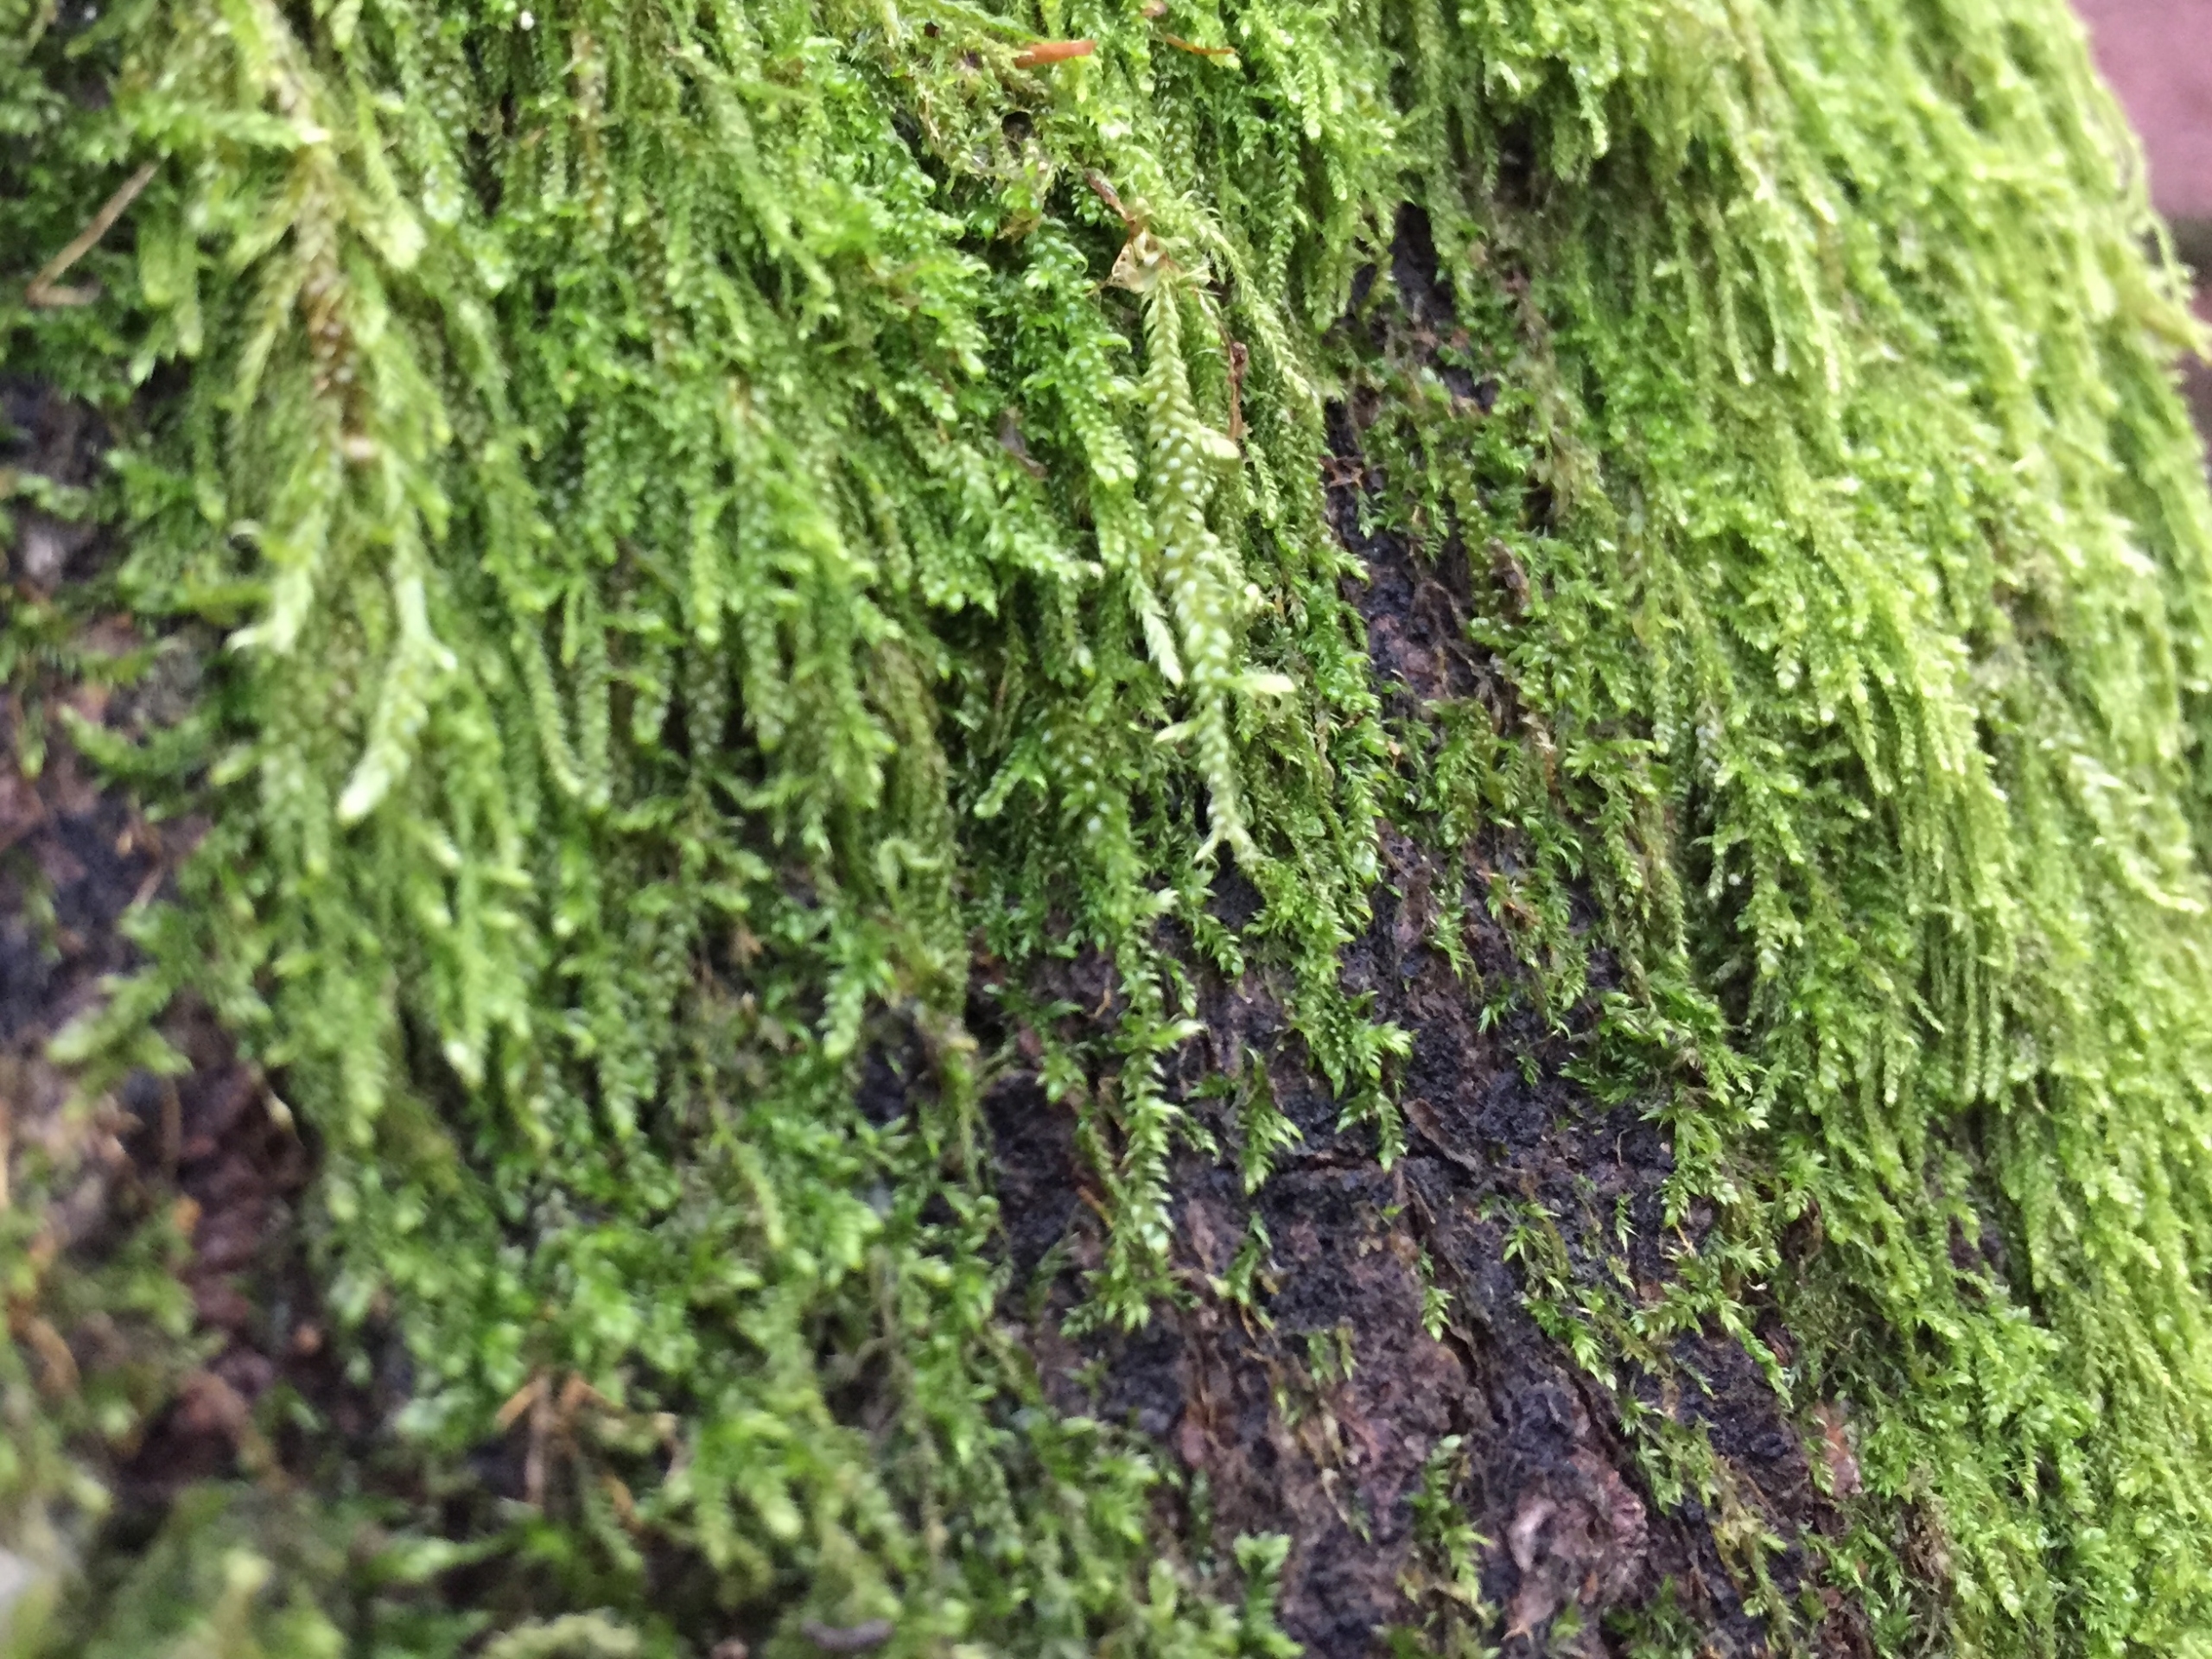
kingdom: Plantae
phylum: Bryophyta
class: Bryopsida
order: Hypnales
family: Hypnaceae
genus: Hypnum
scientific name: Hypnum
